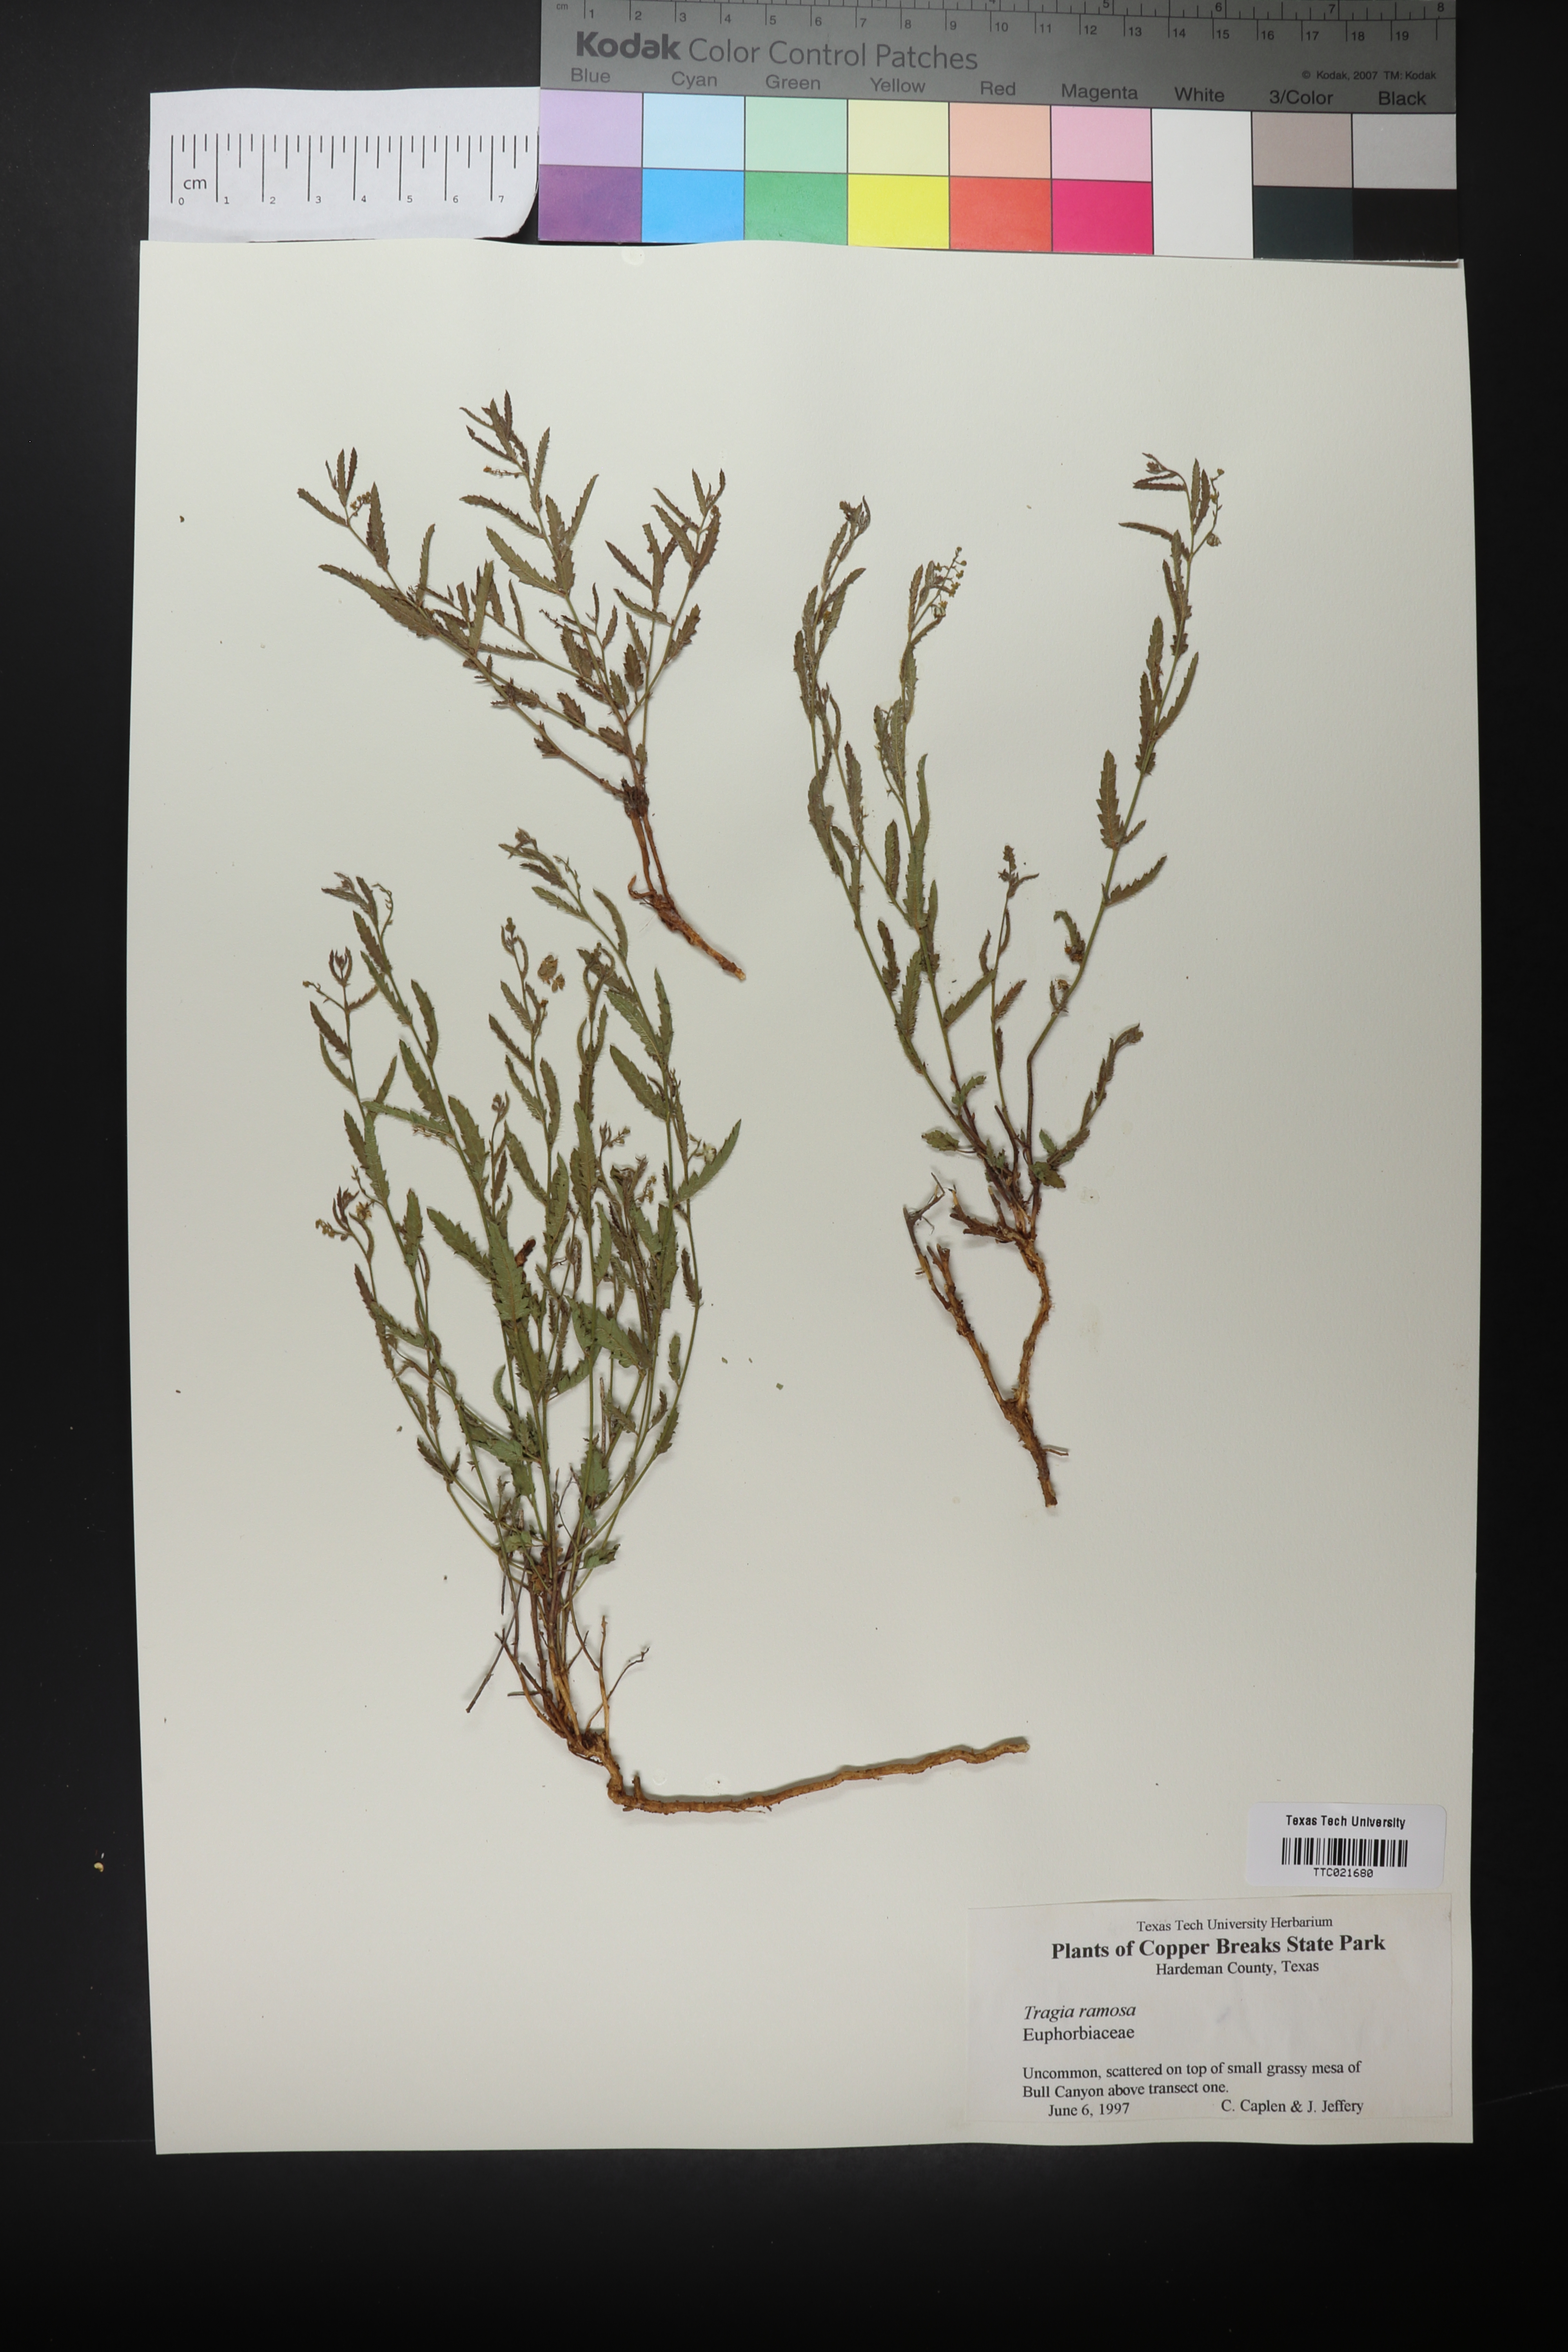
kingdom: Plantae
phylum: Tracheophyta
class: Magnoliopsida
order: Malpighiales
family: Euphorbiaceae
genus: Tragia
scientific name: Tragia ramosa
